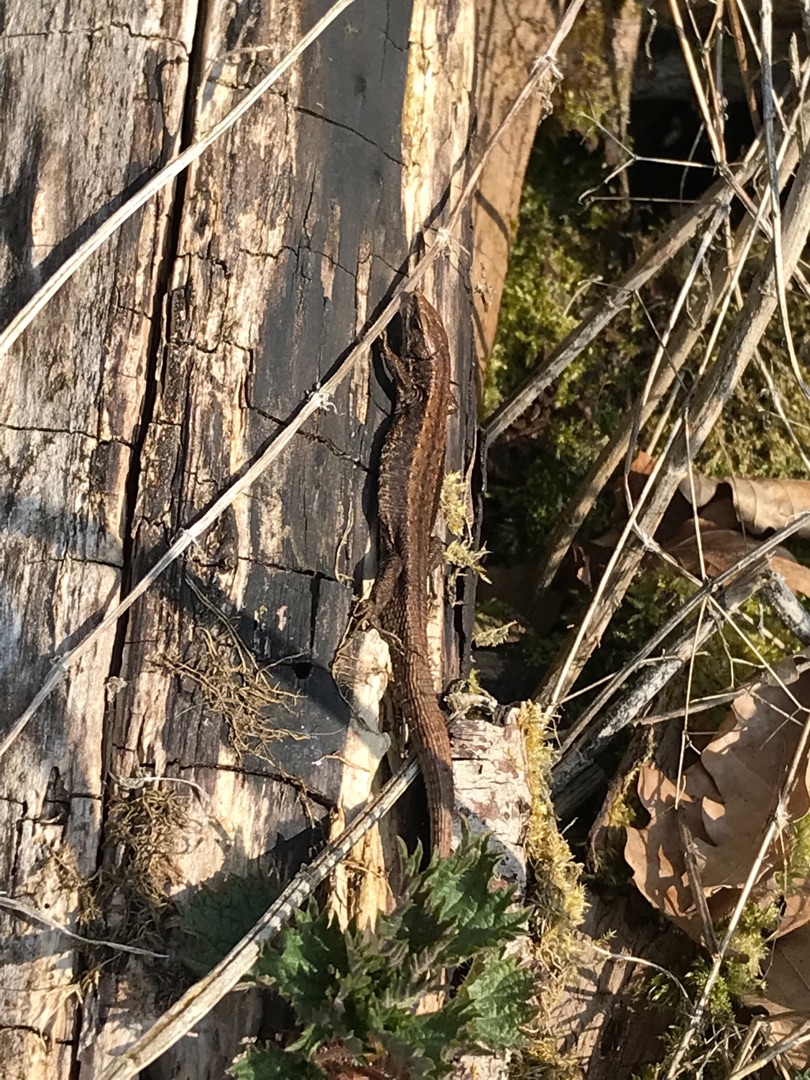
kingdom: Animalia
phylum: Chordata
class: Squamata
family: Lacertidae
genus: Zootoca
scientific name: Zootoca vivipara
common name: Skovfirben
